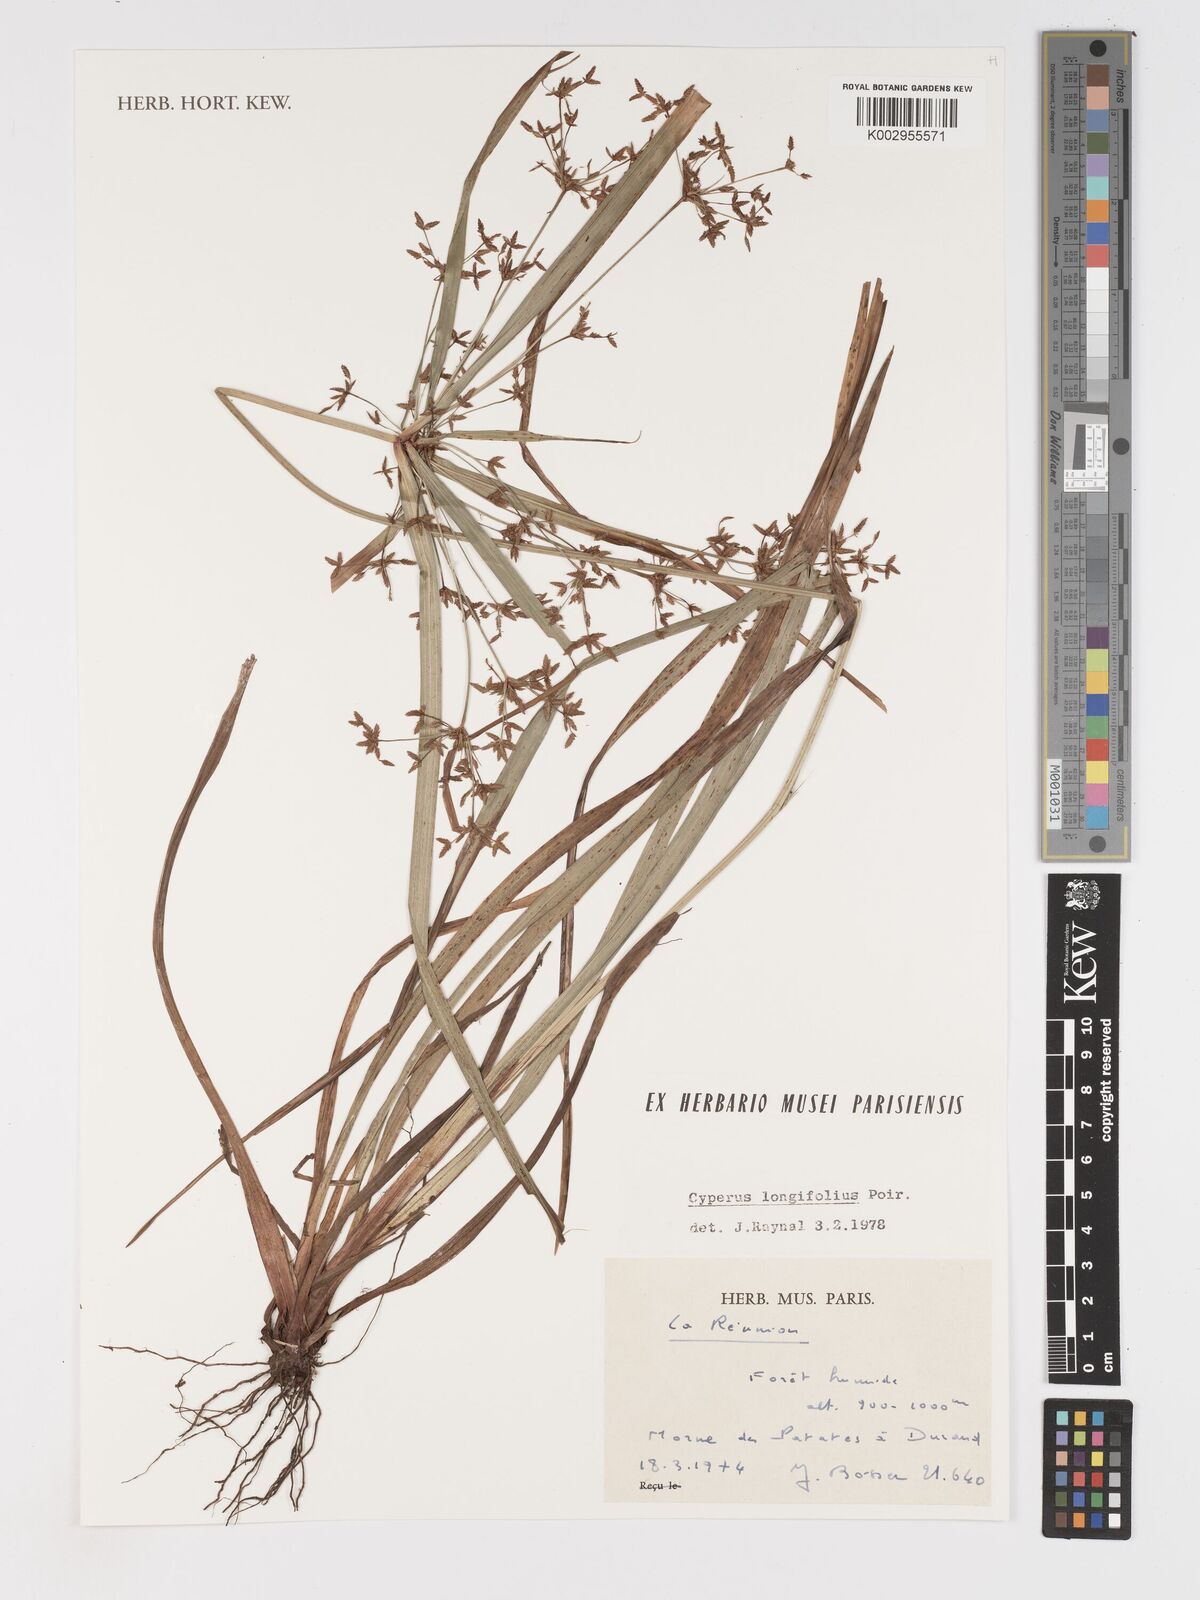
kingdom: Plantae
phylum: Tracheophyta
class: Liliopsida
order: Poales
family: Cyperaceae
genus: Cyperus
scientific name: Cyperus longifolius
